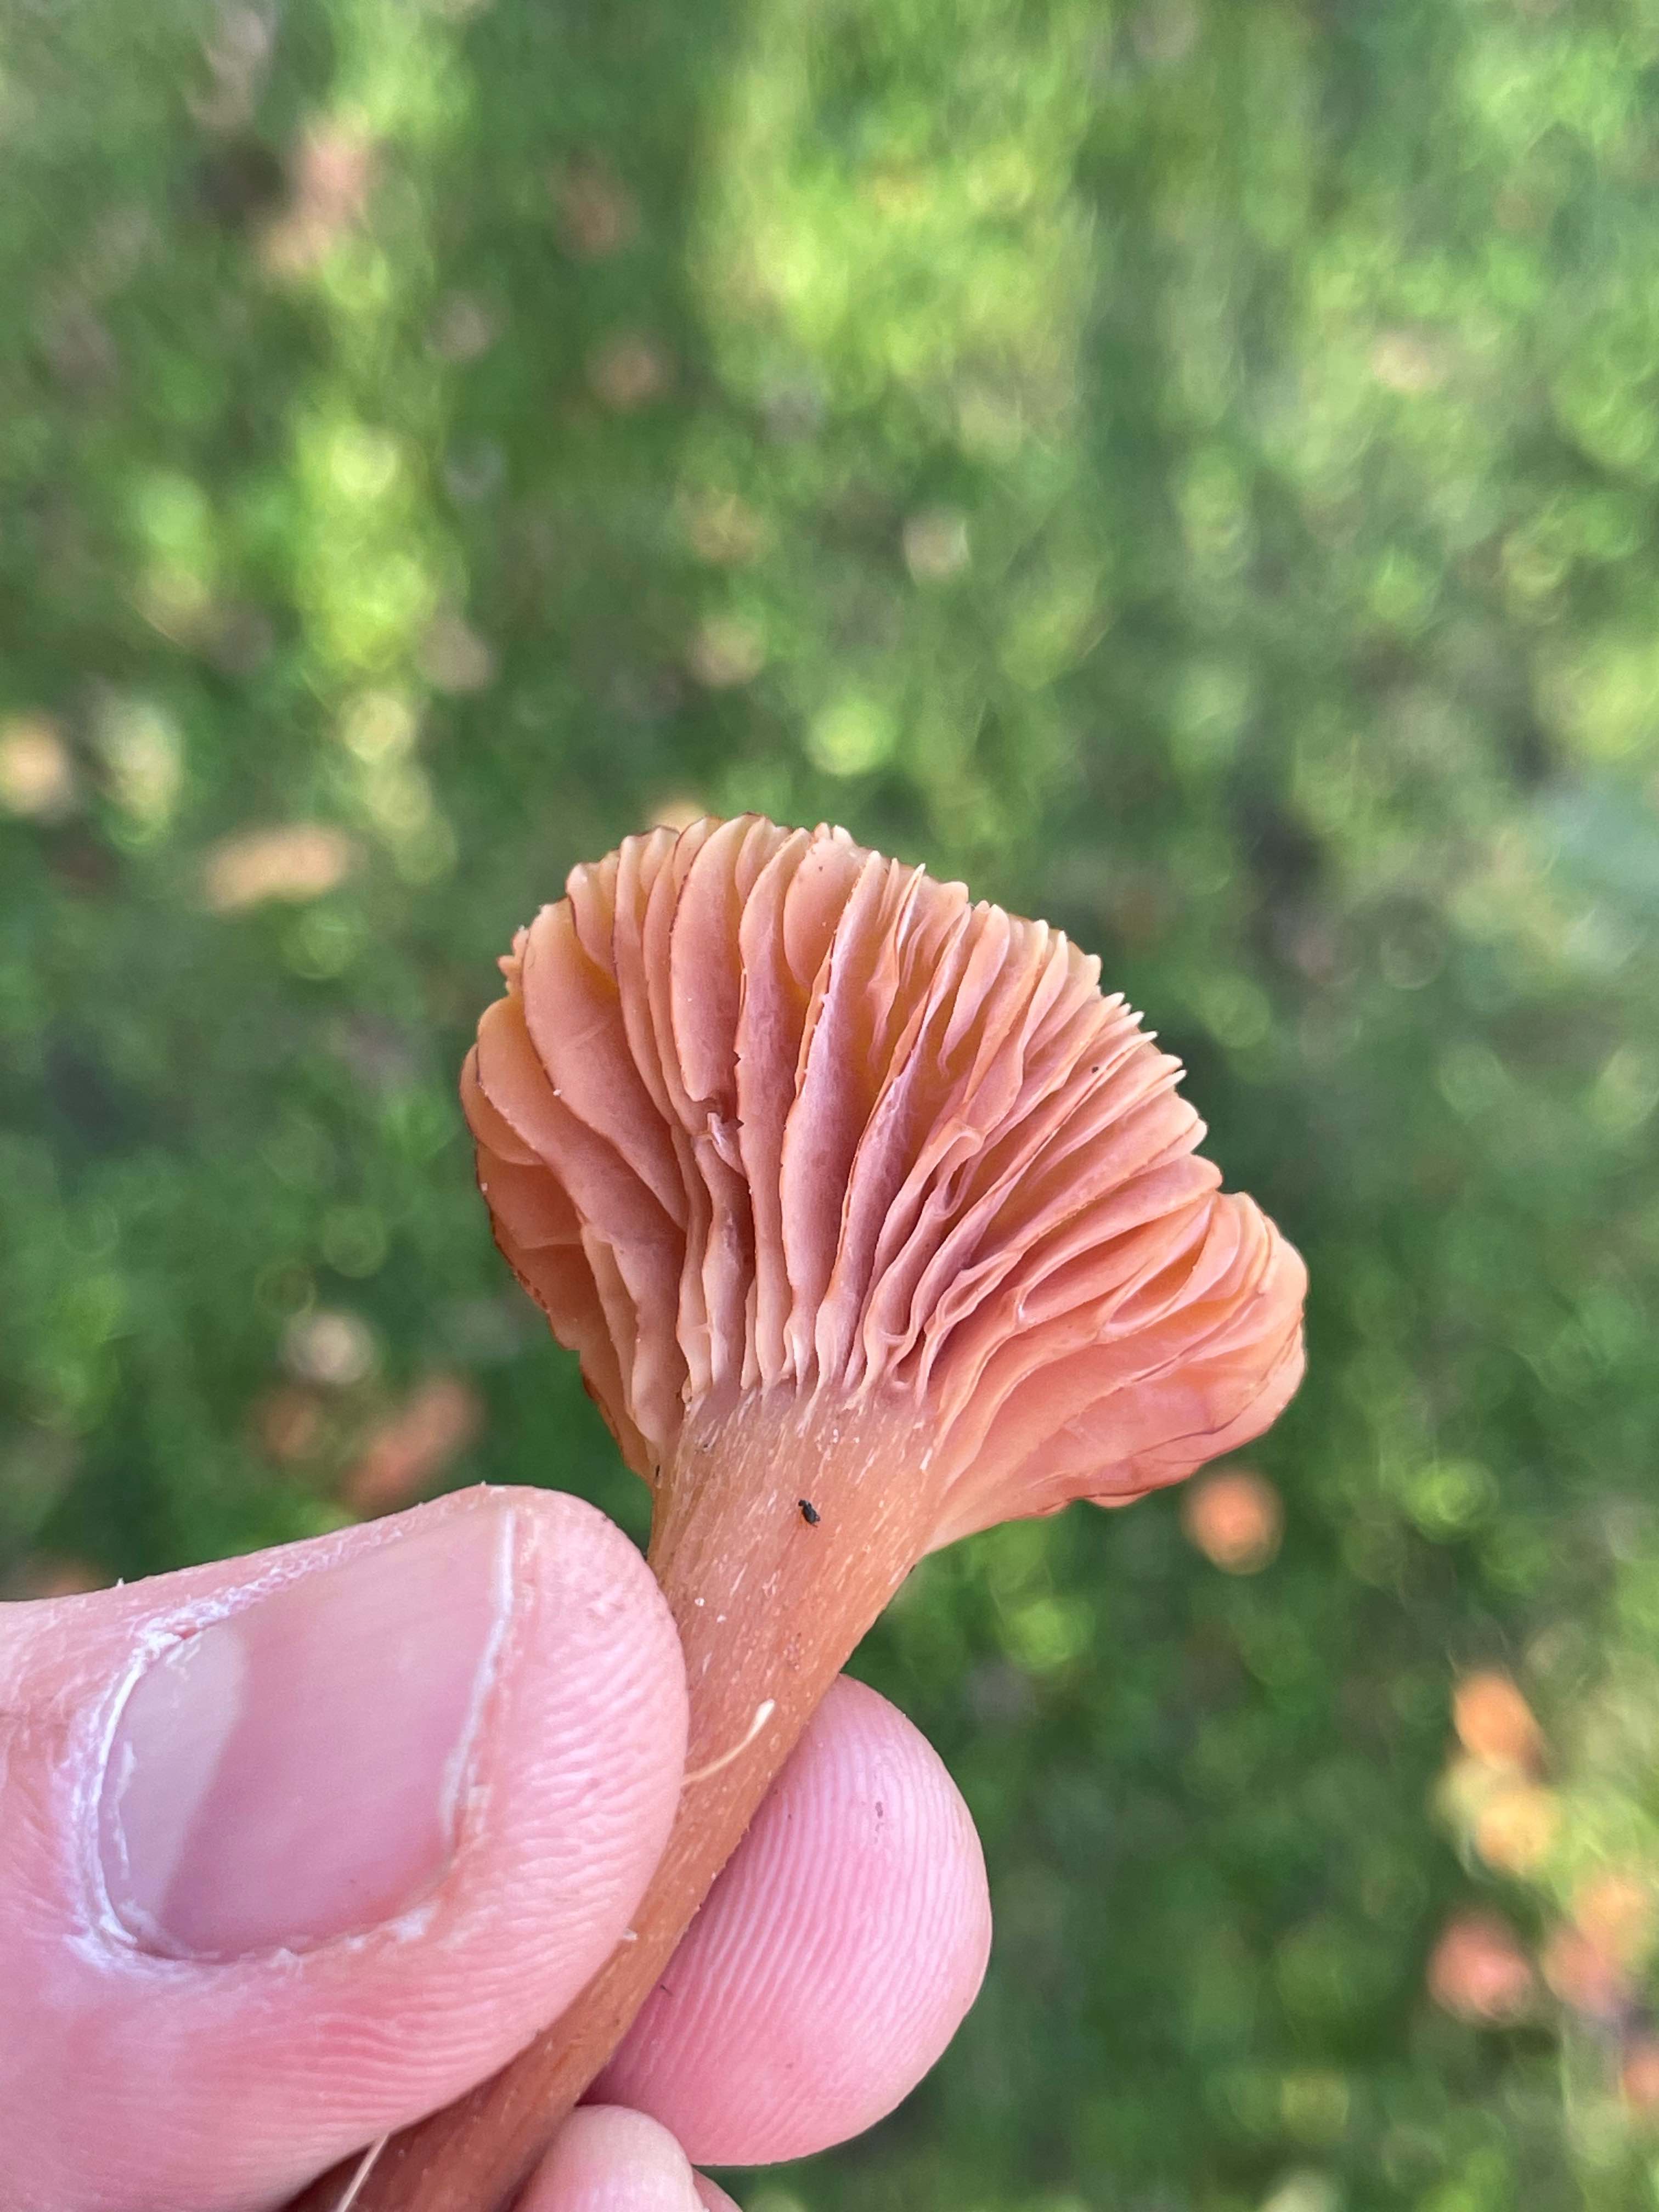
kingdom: Fungi
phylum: Basidiomycota
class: Agaricomycetes
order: Agaricales
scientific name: Agaricales
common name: champignonordenen
